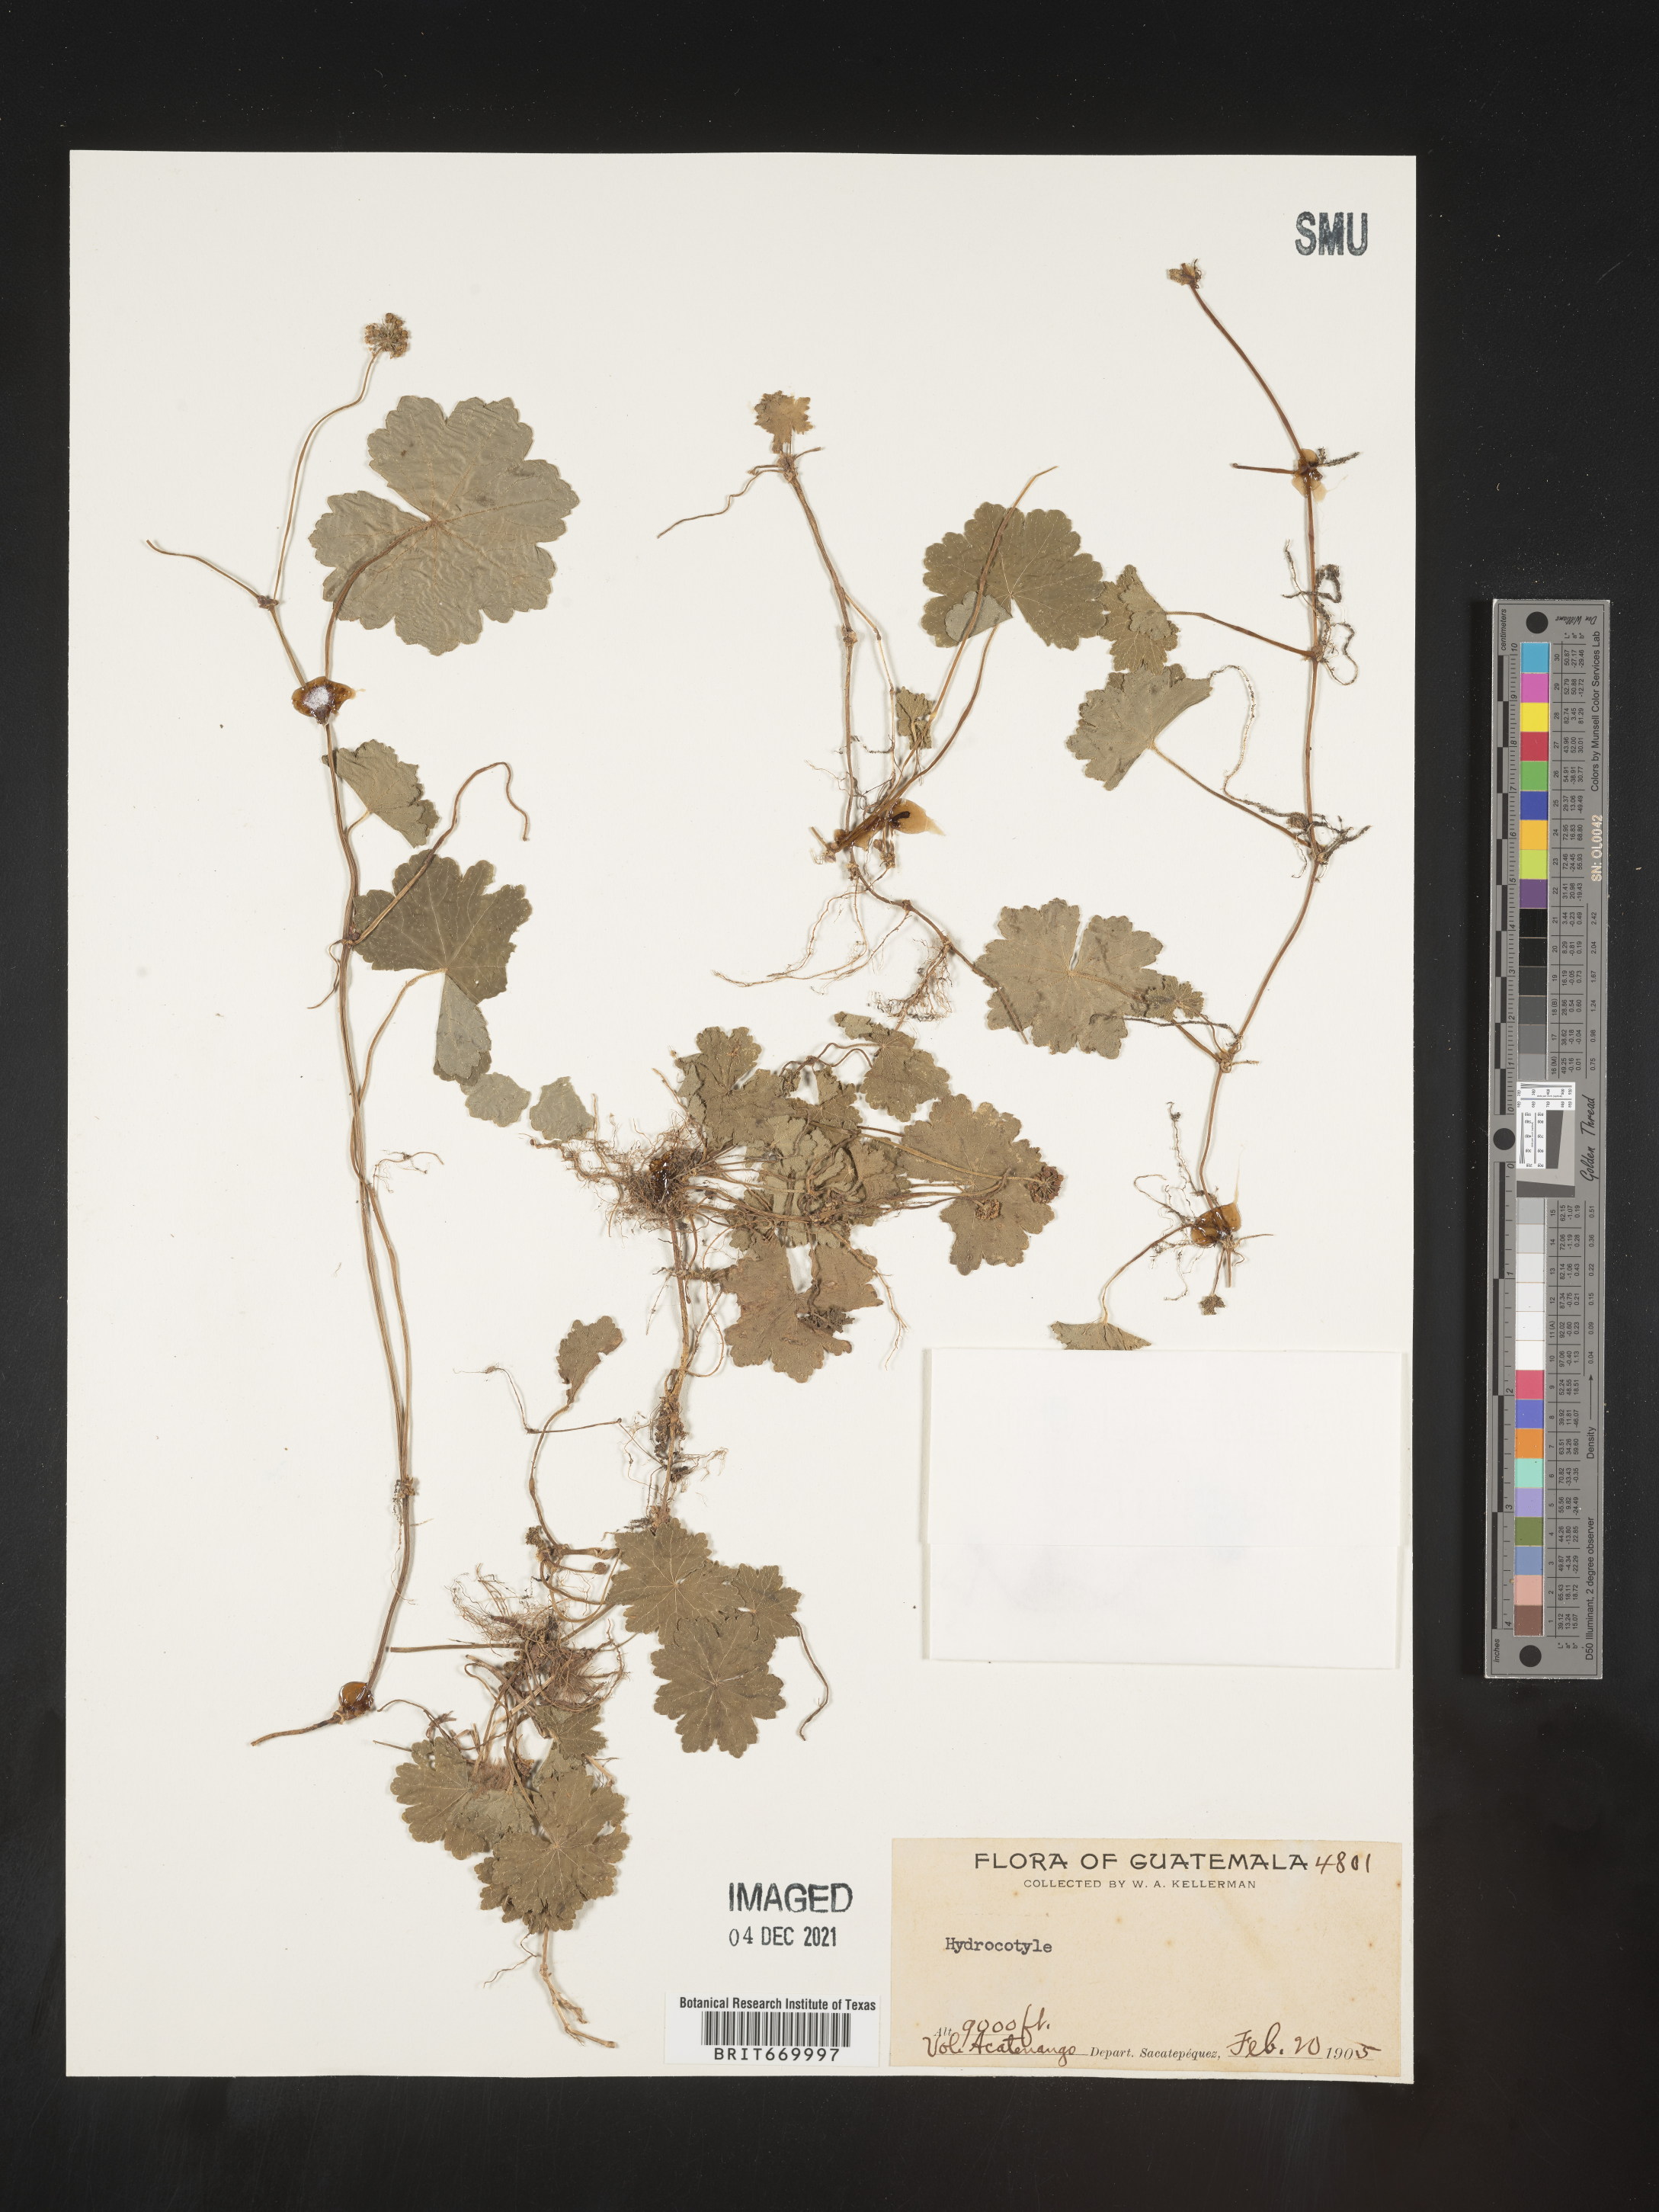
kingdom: Plantae
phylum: Tracheophyta
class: Magnoliopsida
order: Apiales
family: Araliaceae
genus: Hydrocotyle
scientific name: Hydrocotyle
